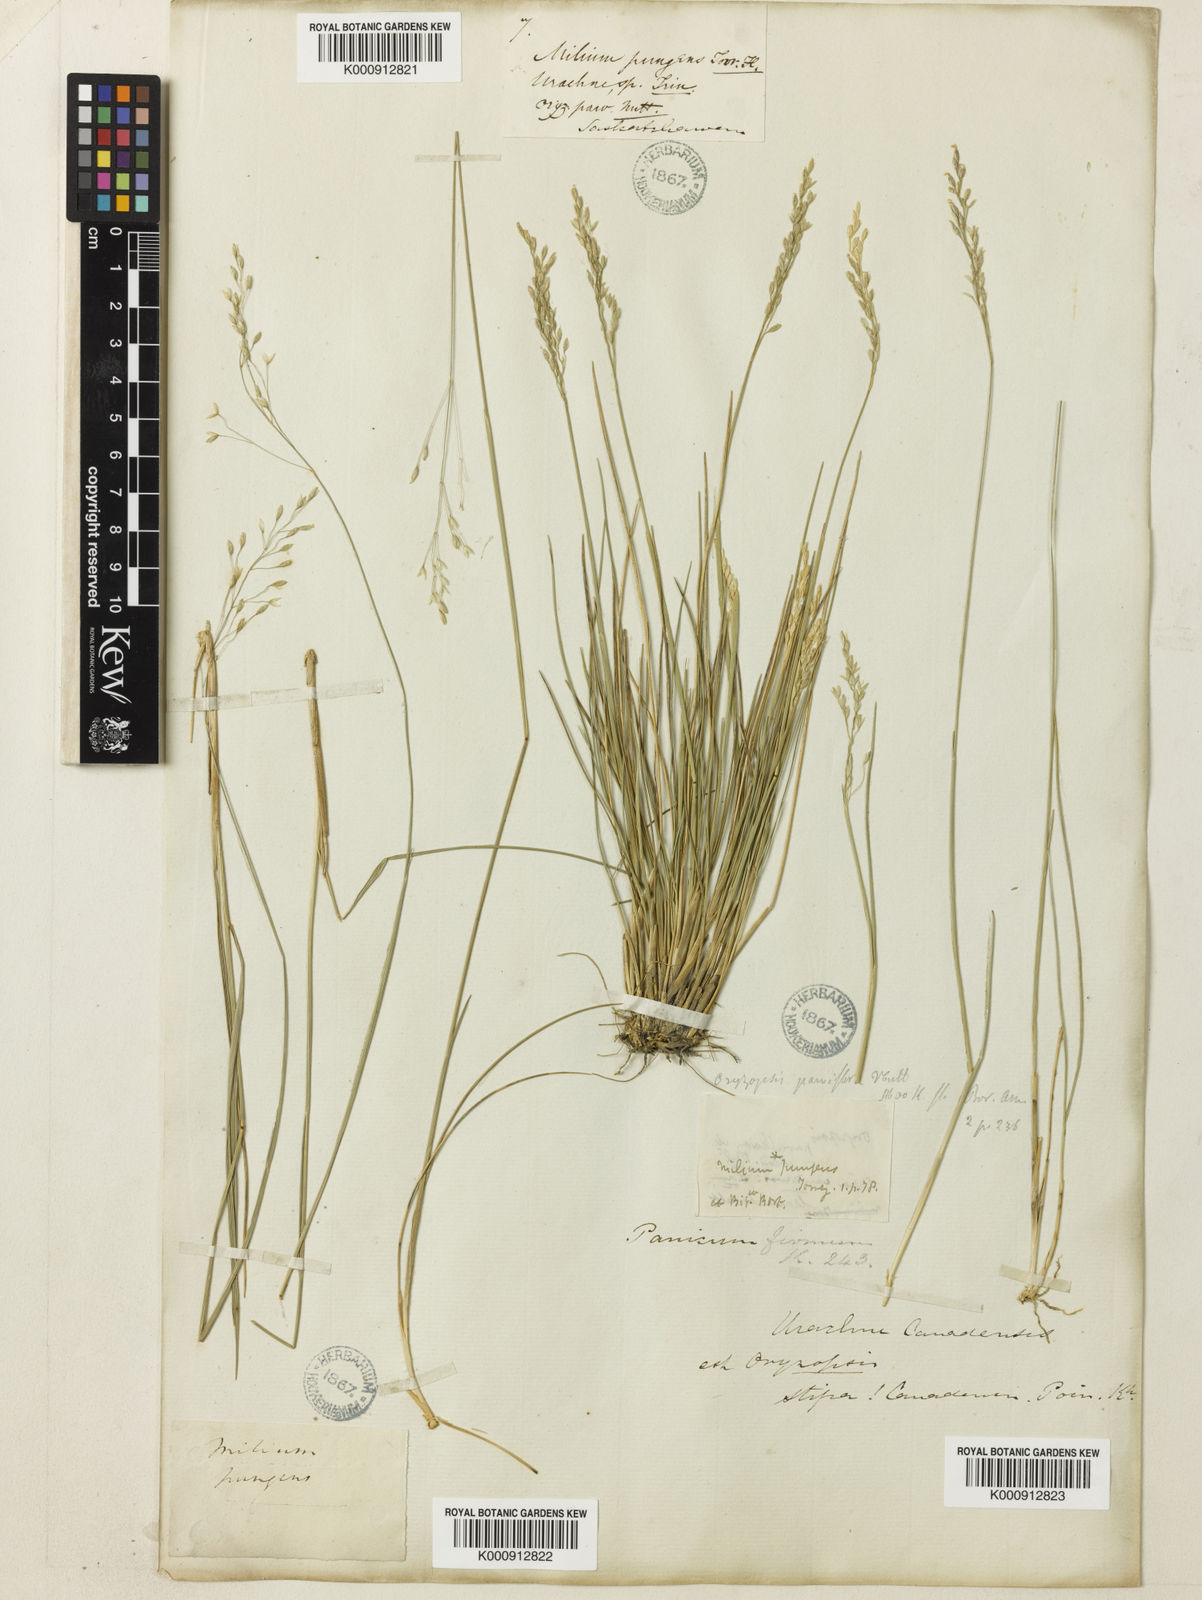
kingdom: Plantae
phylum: Tracheophyta
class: Liliopsida
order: Poales
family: Poaceae
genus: Piptatheropsis
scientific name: Piptatheropsis pungens
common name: Northern ricegrass
